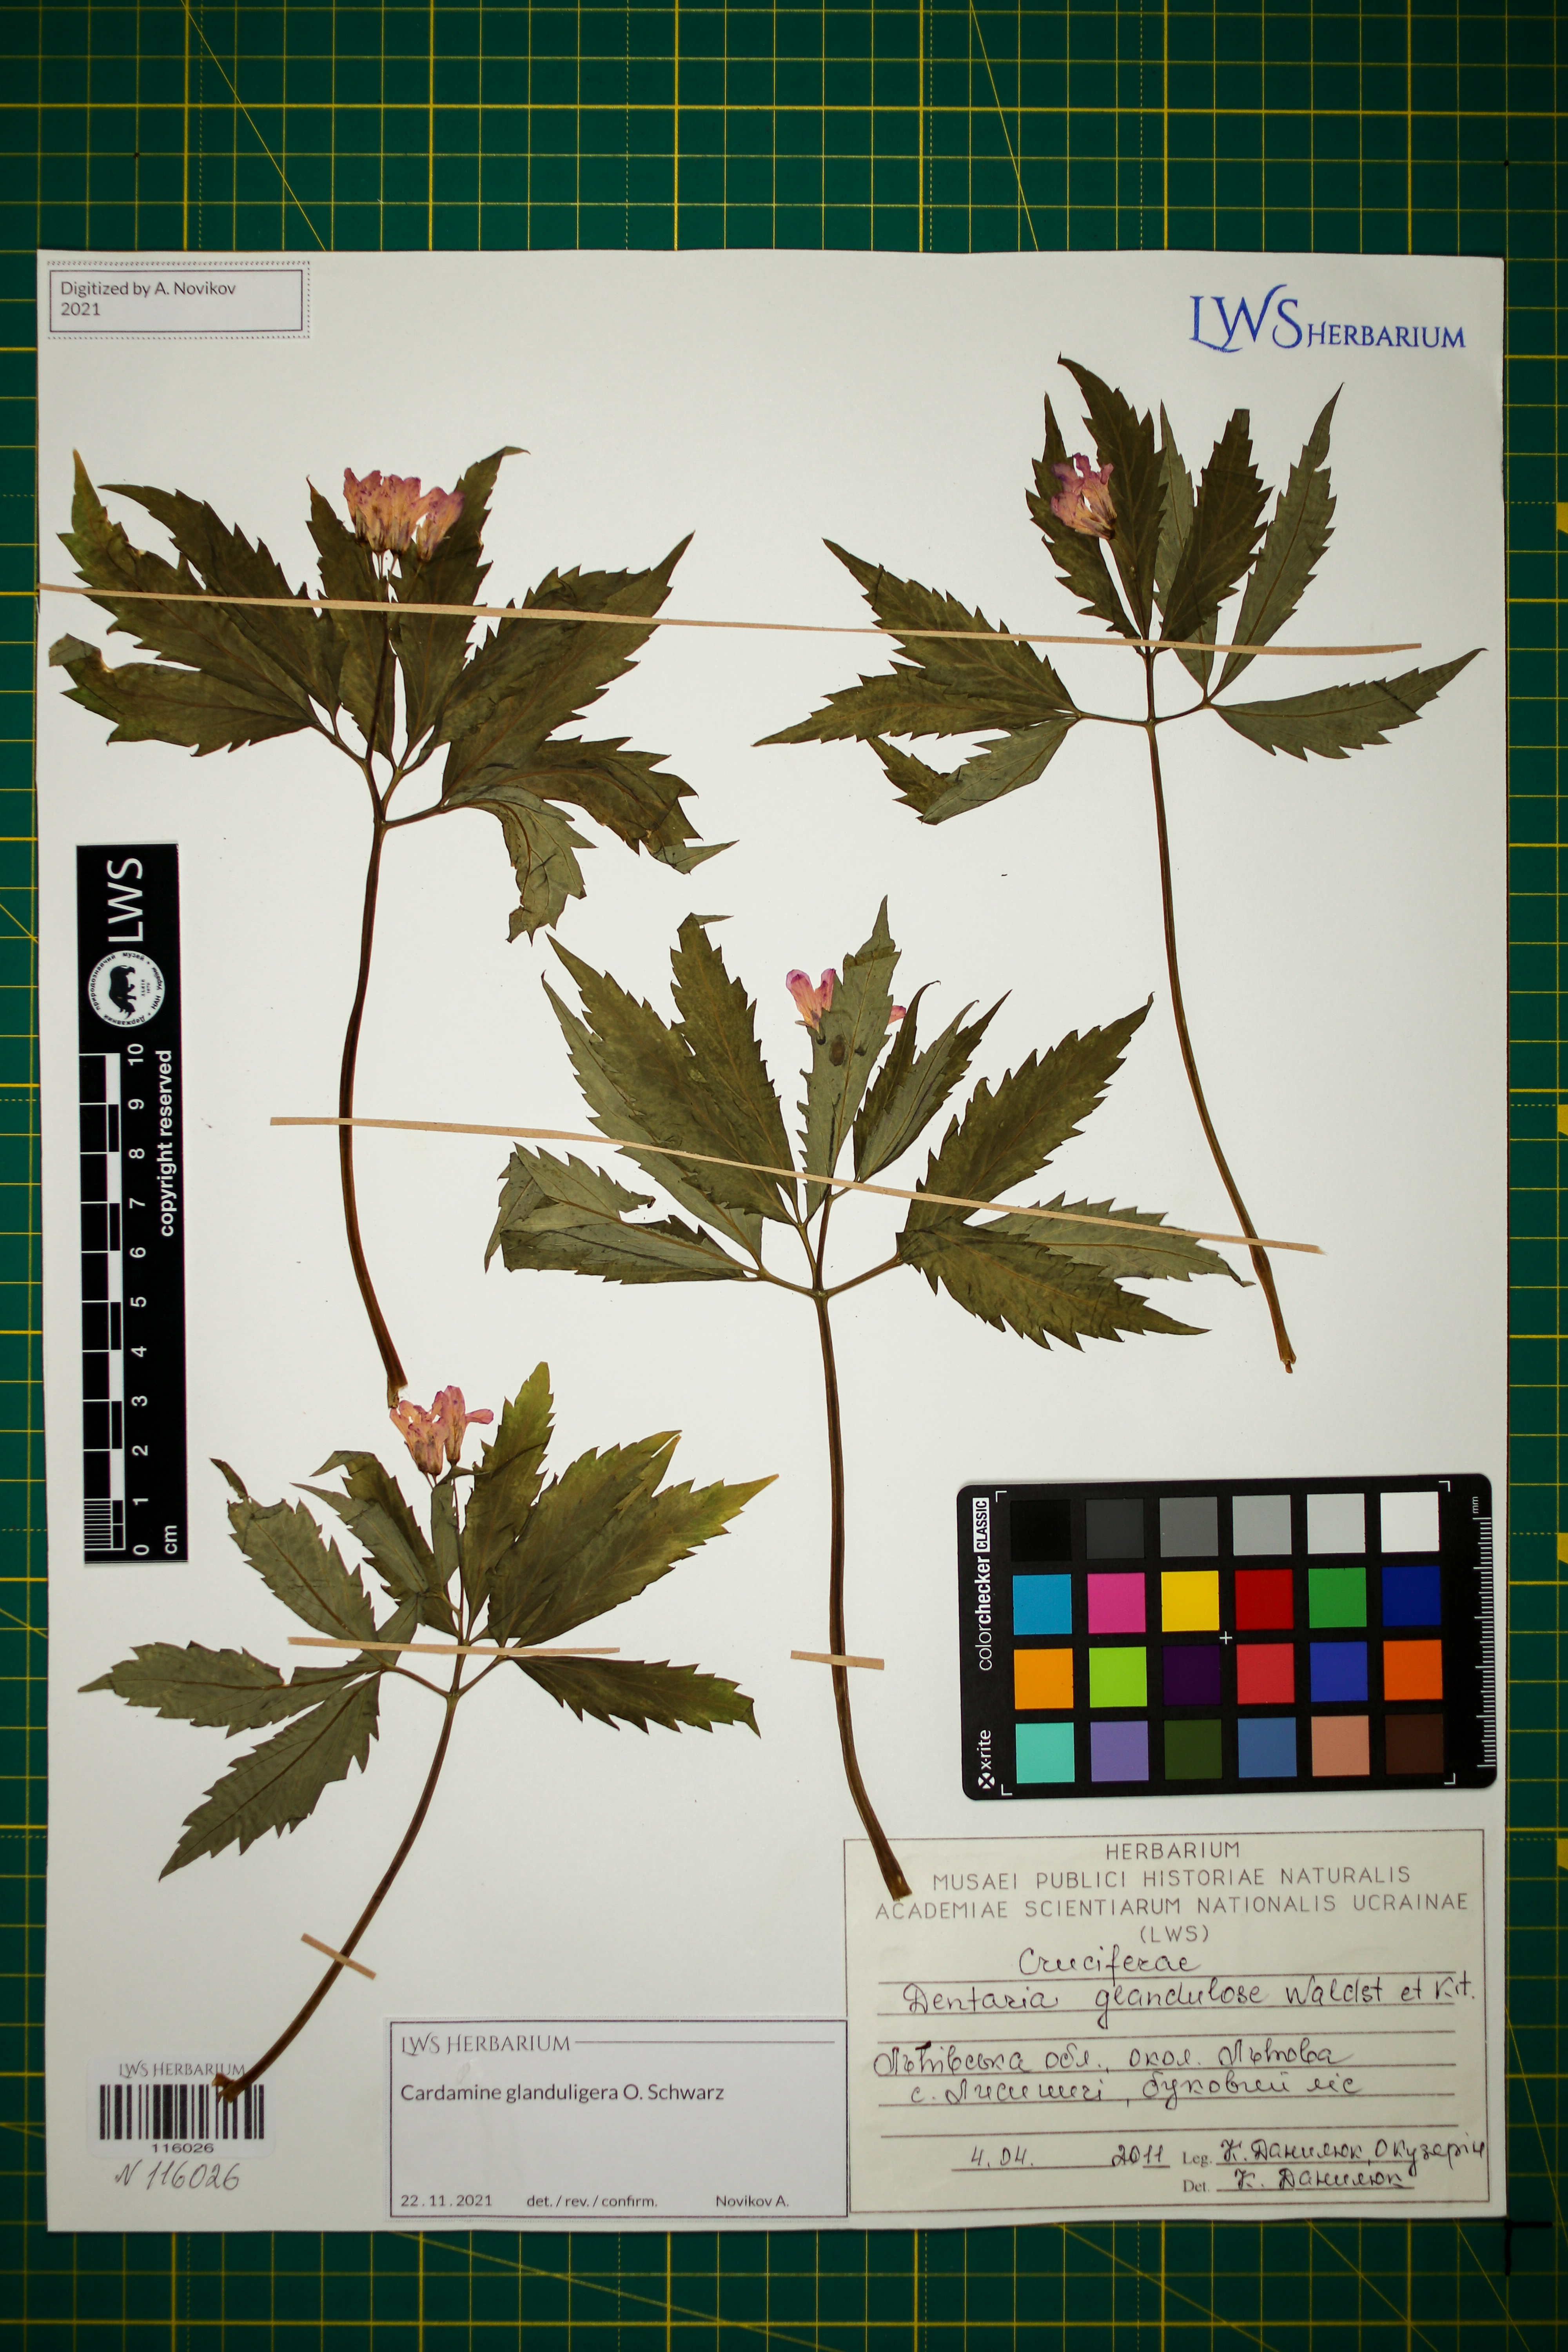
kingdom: Plantae
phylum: Tracheophyta
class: Magnoliopsida
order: Brassicales
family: Brassicaceae
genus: Cardamine
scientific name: Cardamine glanduligera
